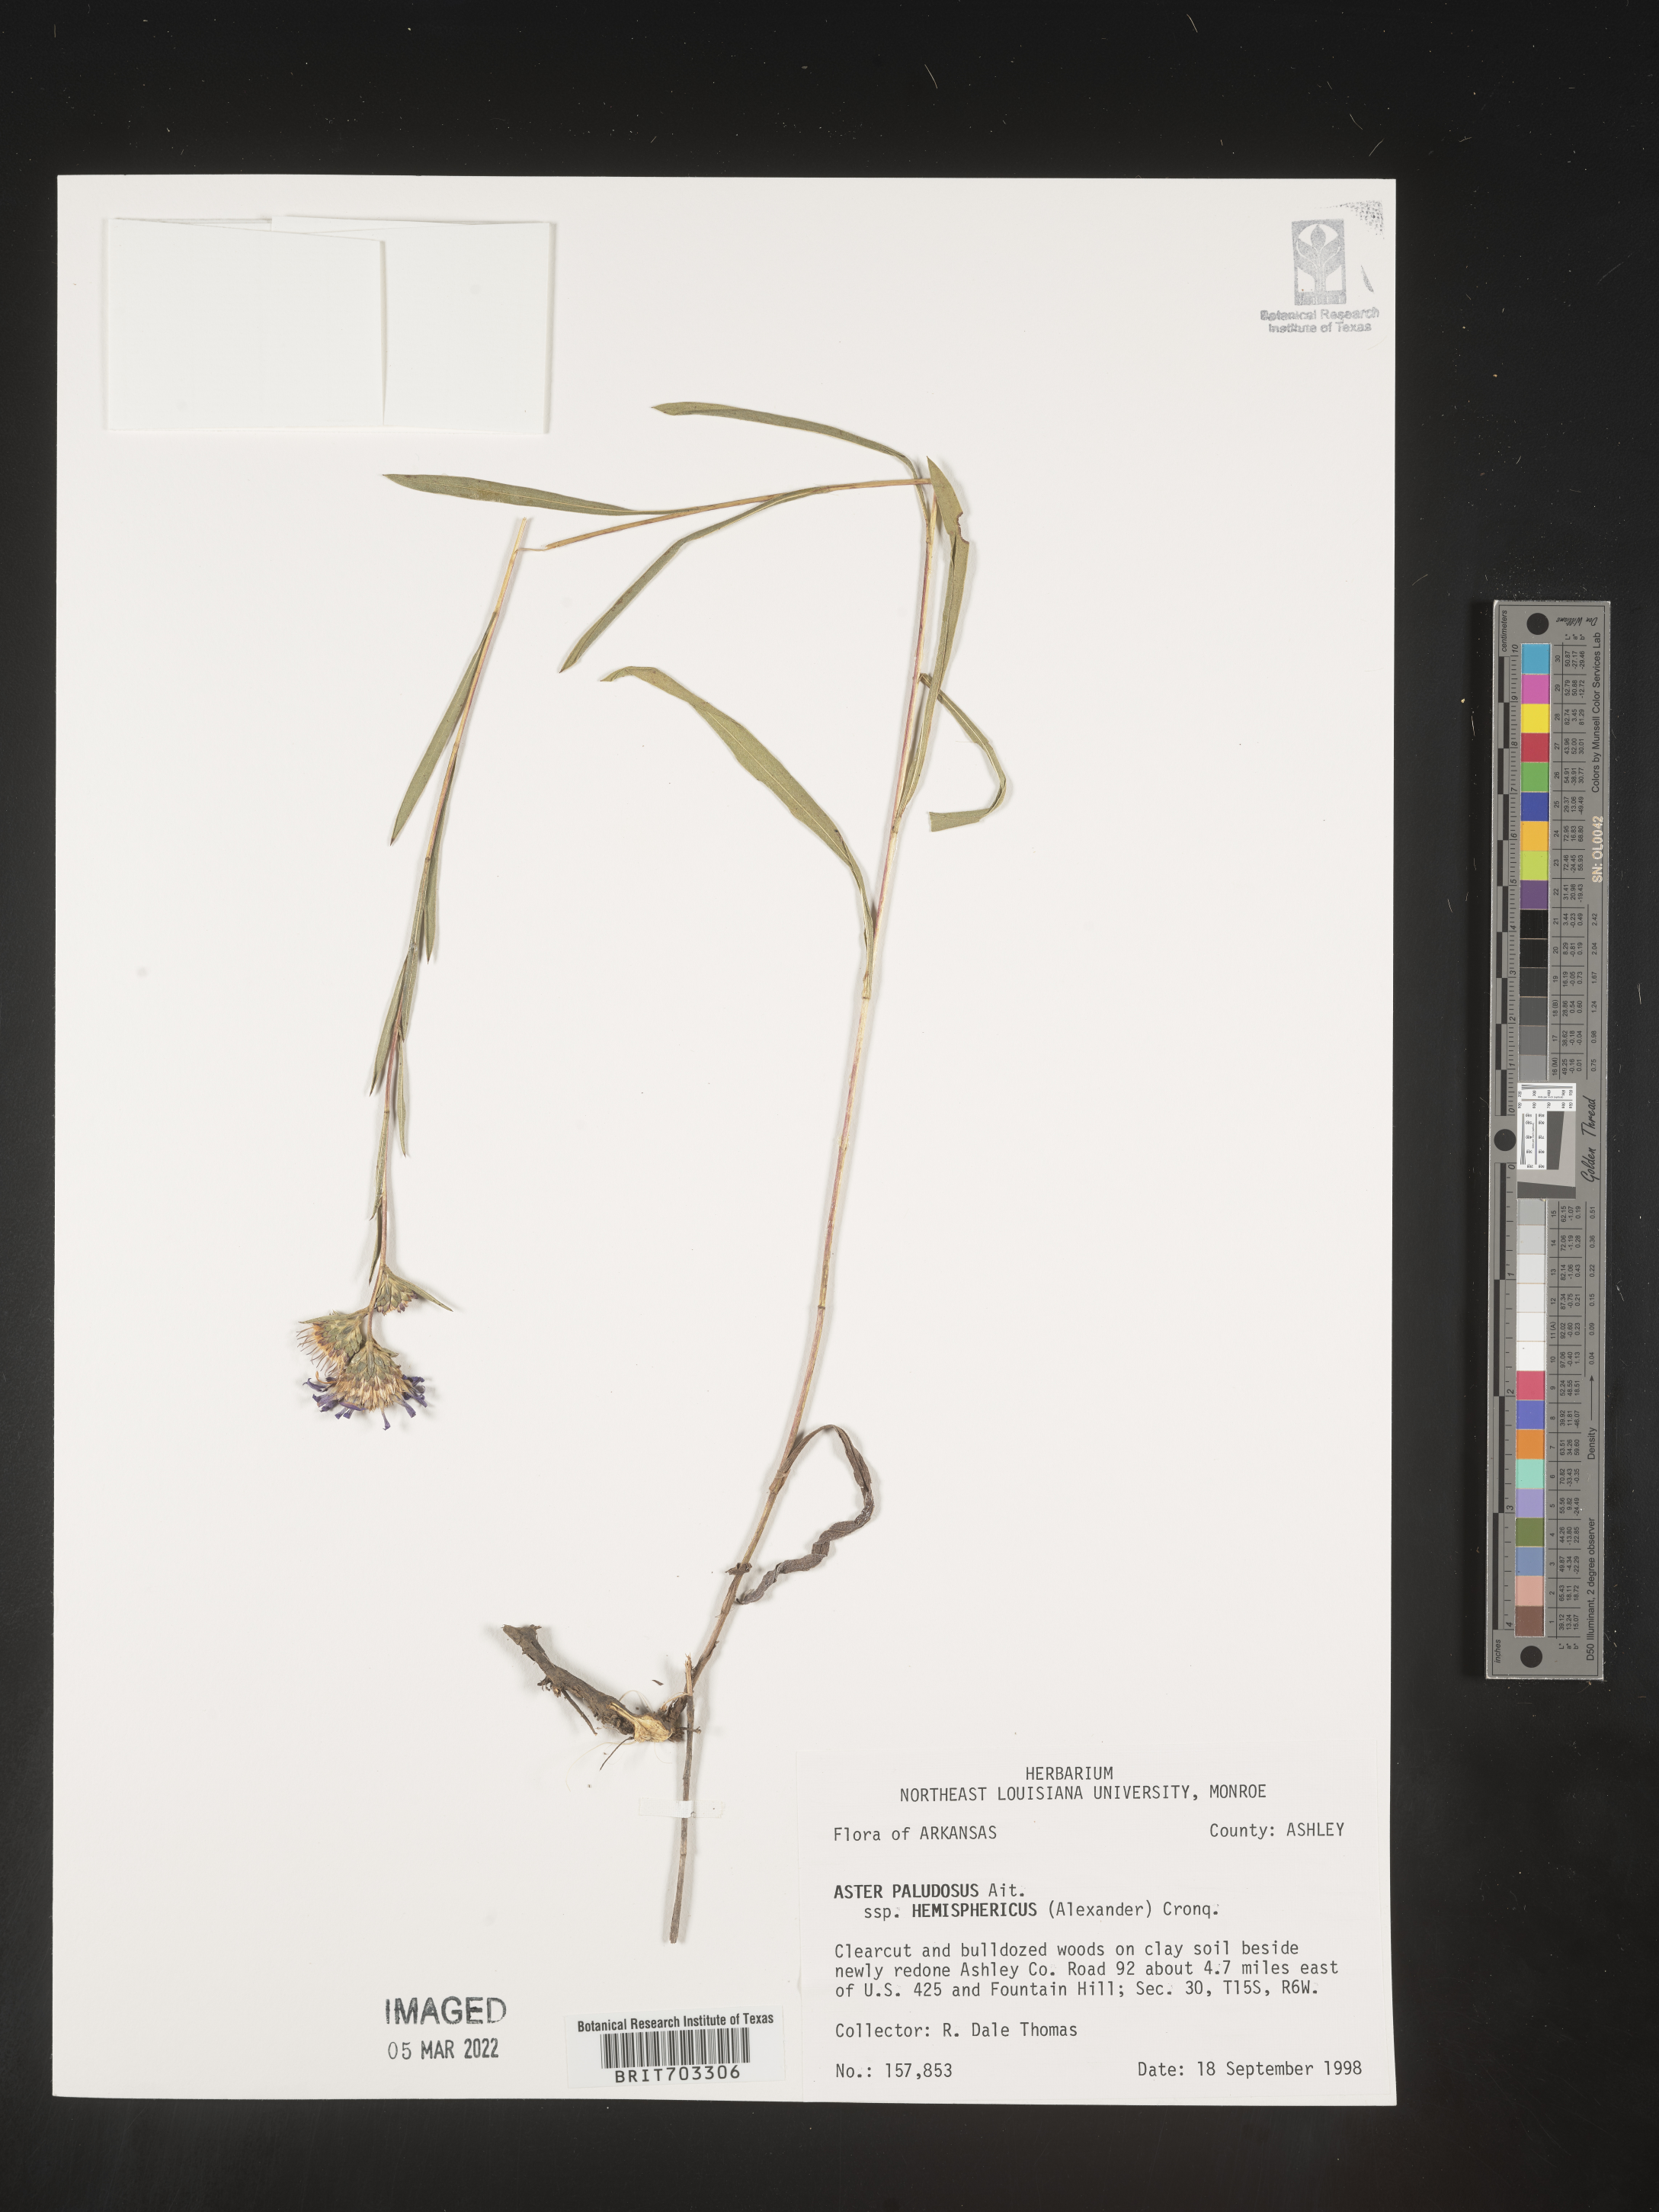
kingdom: Plantae
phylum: Tracheophyta
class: Magnoliopsida
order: Asterales
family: Asteraceae
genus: Eurybia
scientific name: Eurybia hemispherica
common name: Showy aster
